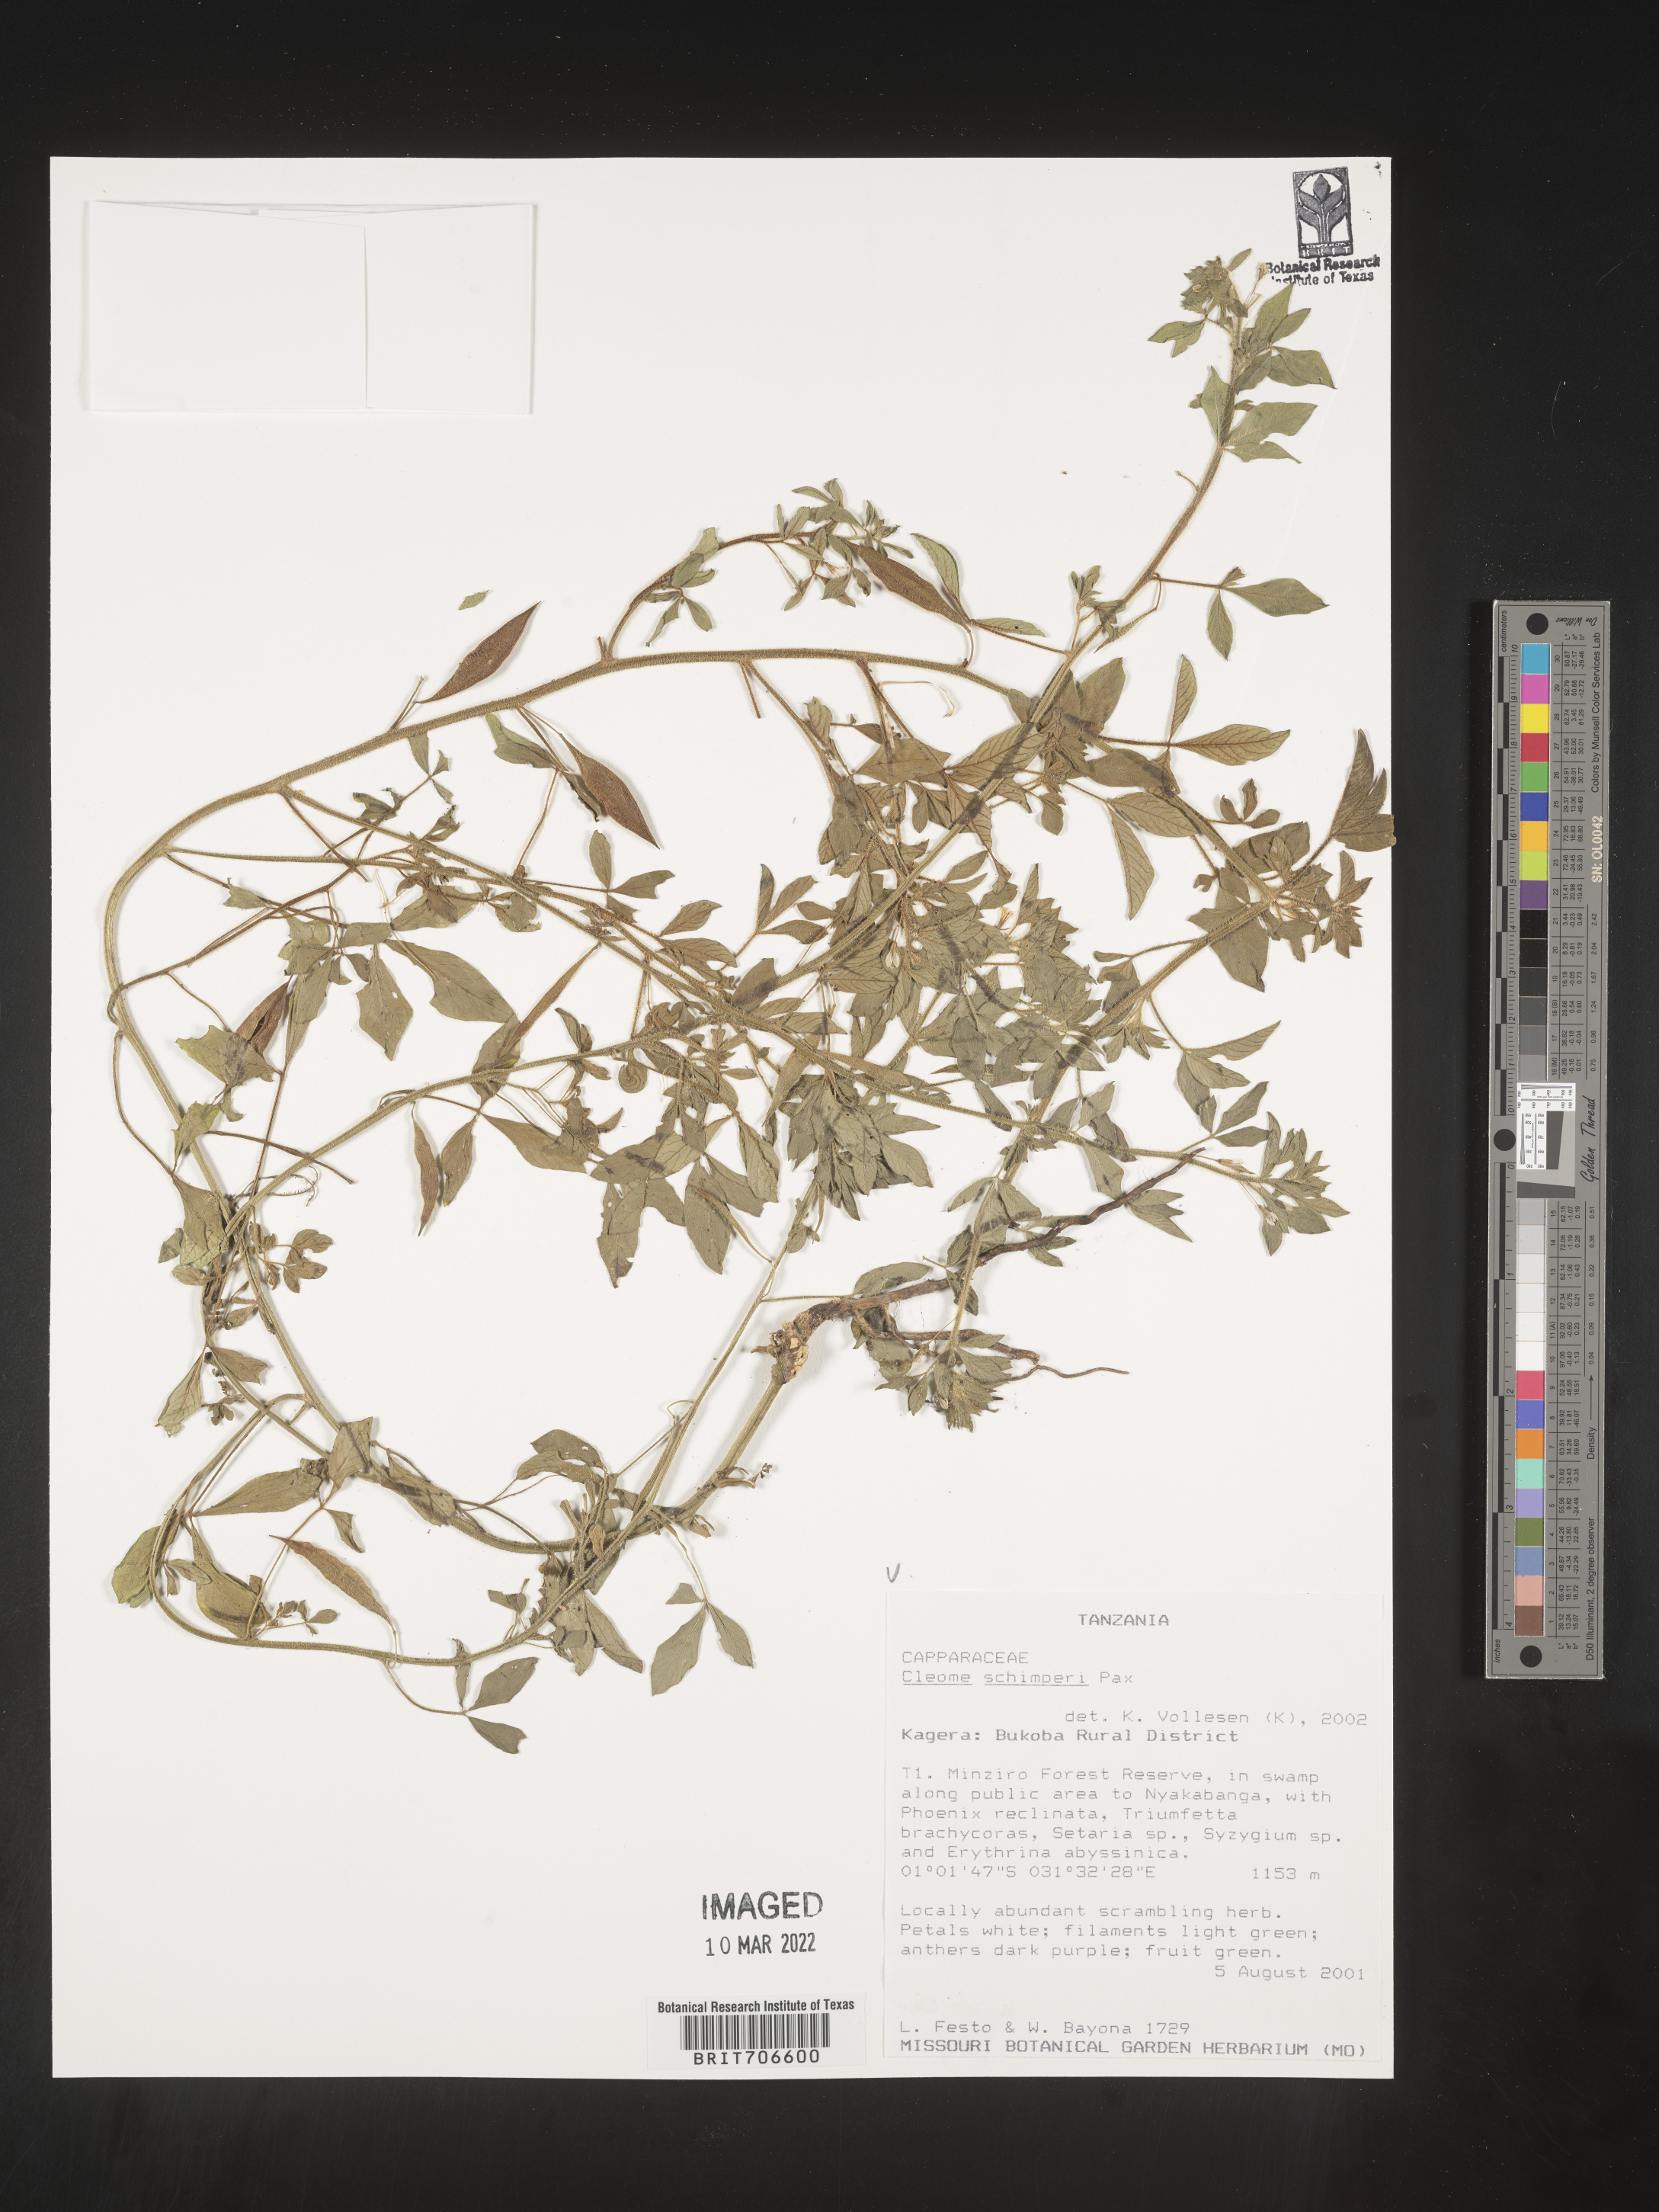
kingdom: Plantae
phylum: Tracheophyta
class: Magnoliopsida
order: Brassicales
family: Cleomaceae
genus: Cleome
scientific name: Cleome
